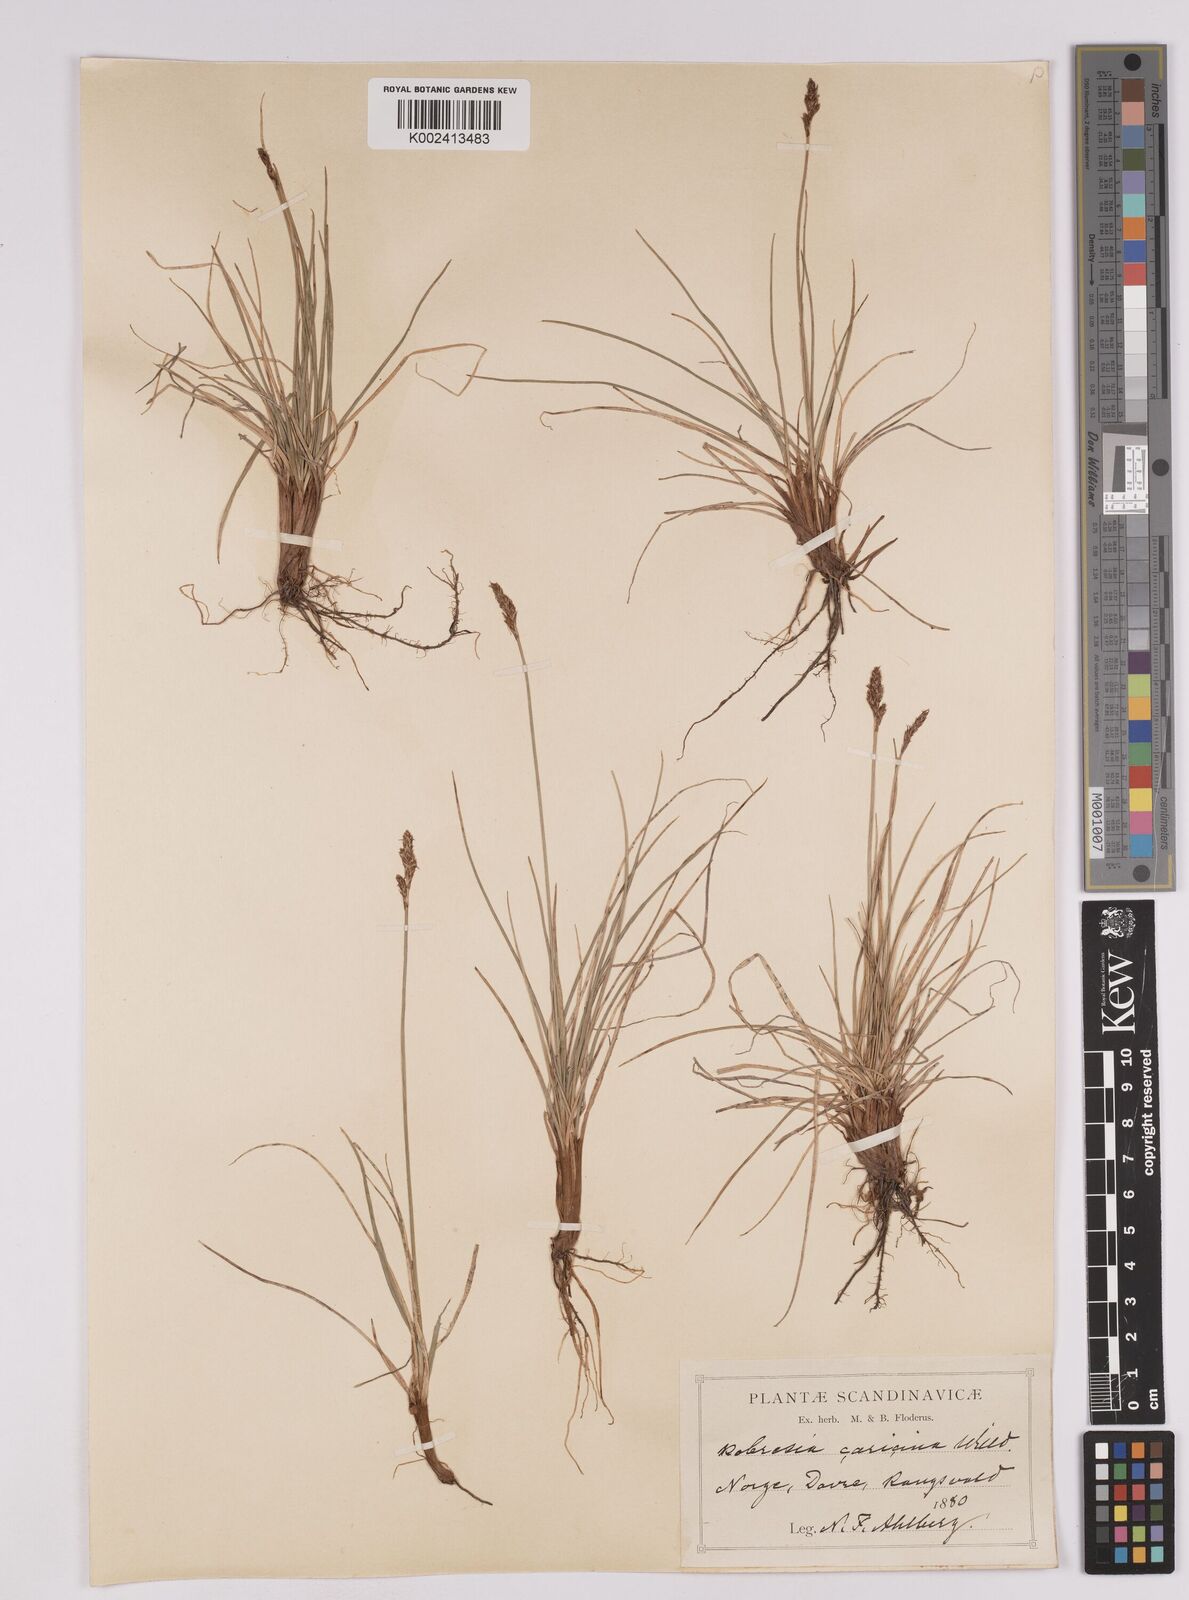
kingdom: Plantae
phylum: Tracheophyta
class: Liliopsida
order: Poales
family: Cyperaceae
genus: Carex
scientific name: Carex simpliciuscula
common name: Simple bog sedge
